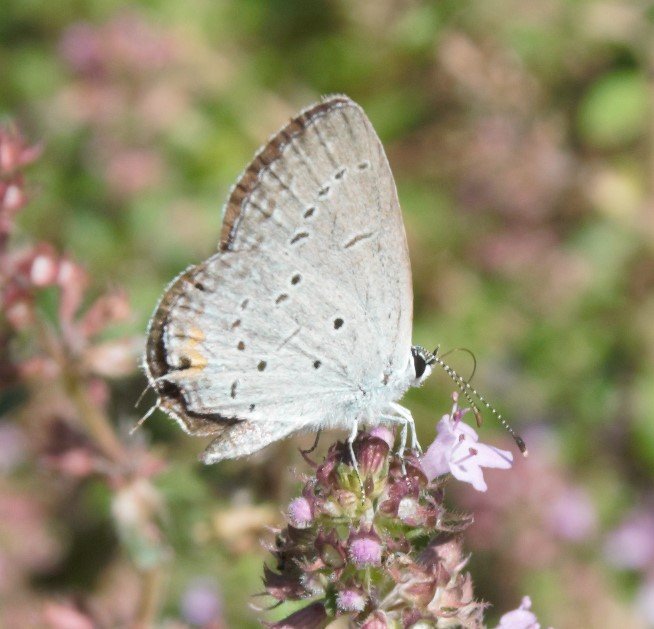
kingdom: Animalia
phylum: Arthropoda
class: Insecta
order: Lepidoptera
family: Lycaenidae
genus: Elkalyce
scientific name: Elkalyce comyntas
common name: Eastern Tailed-Blue
